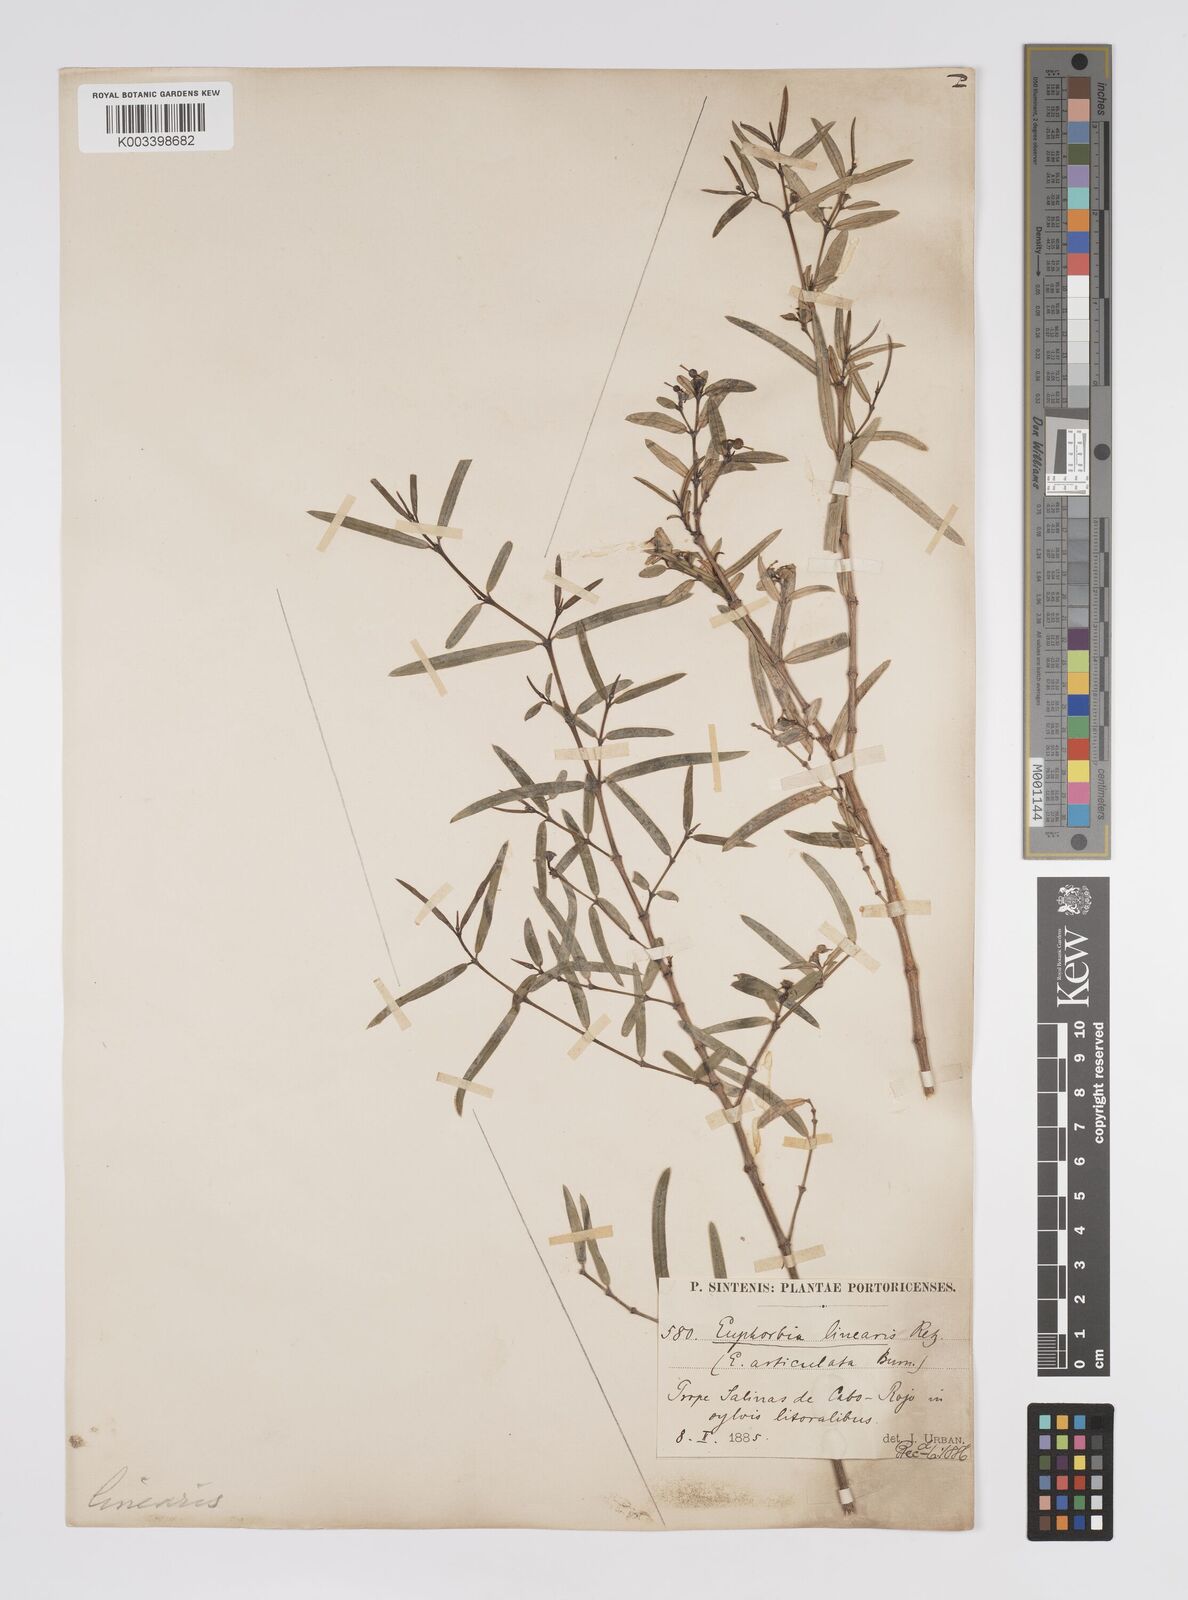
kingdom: Plantae
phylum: Tracheophyta
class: Magnoliopsida
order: Malpighiales
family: Euphorbiaceae
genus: Euphorbia
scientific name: Euphorbia articulata
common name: Jointed sandmat
